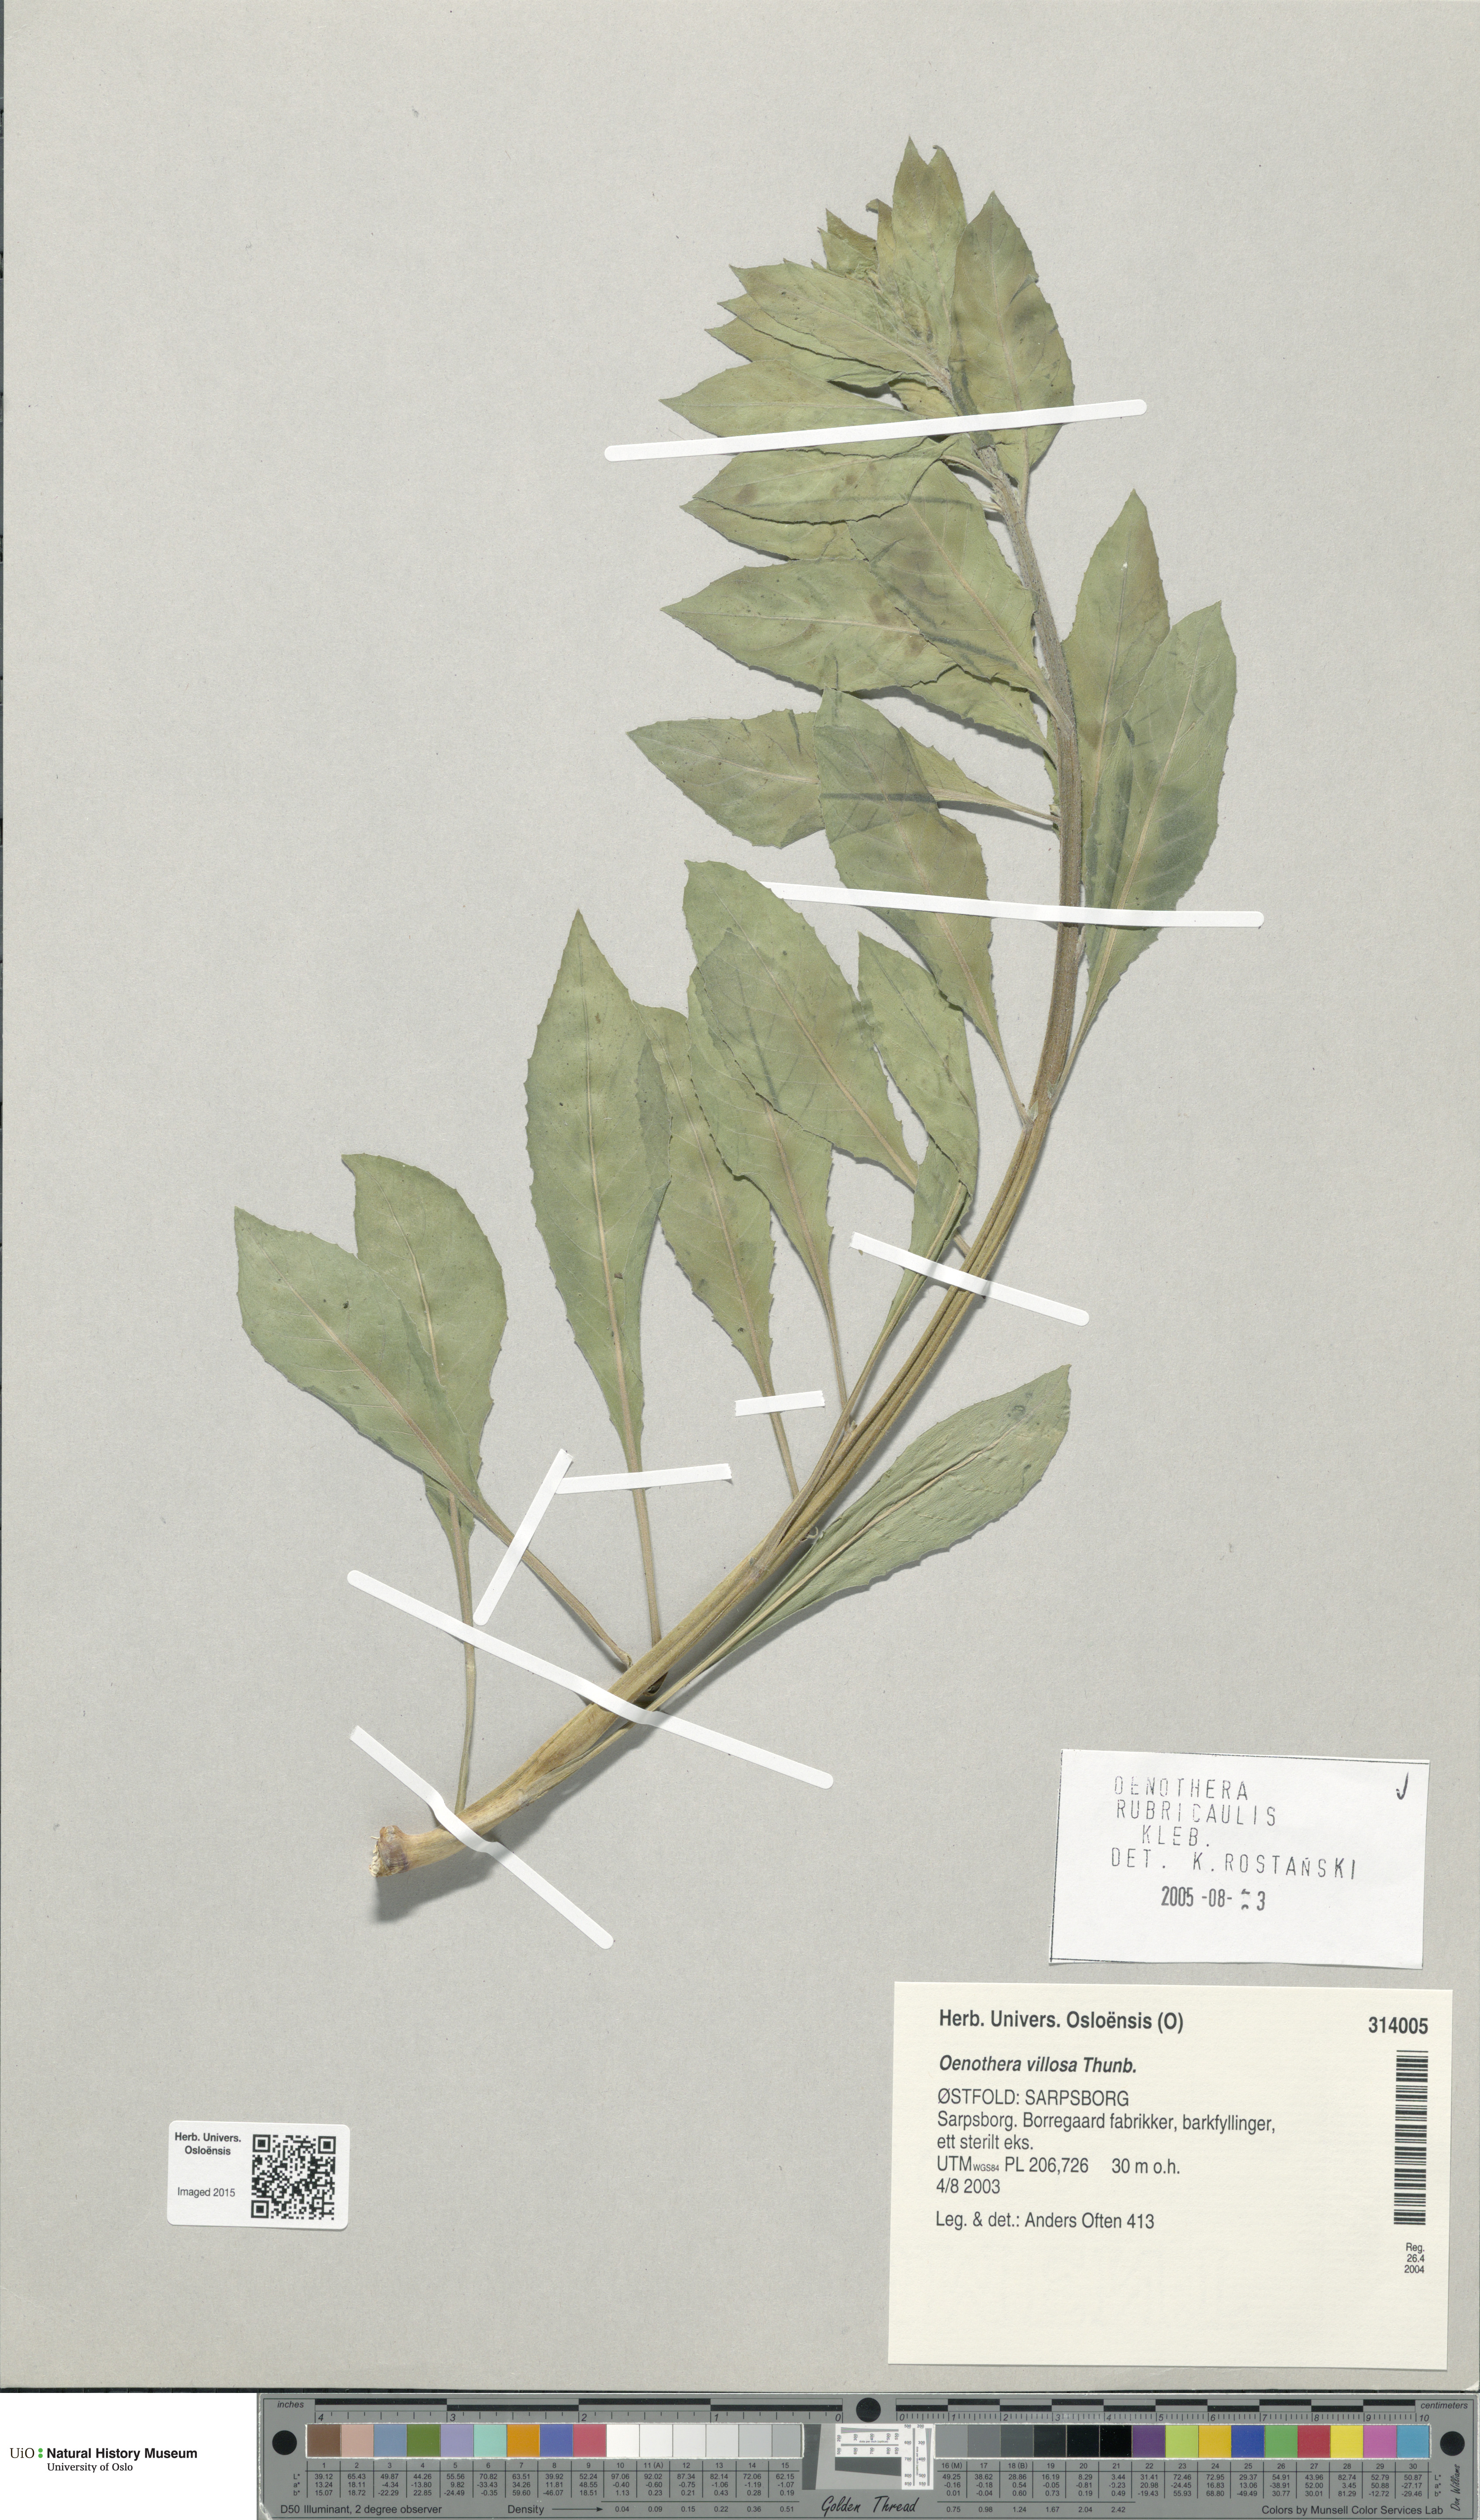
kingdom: Plantae
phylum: Tracheophyta
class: Magnoliopsida
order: Myrtales
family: Onagraceae
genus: Oenothera
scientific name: Oenothera biennis
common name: Common evening-primrose
